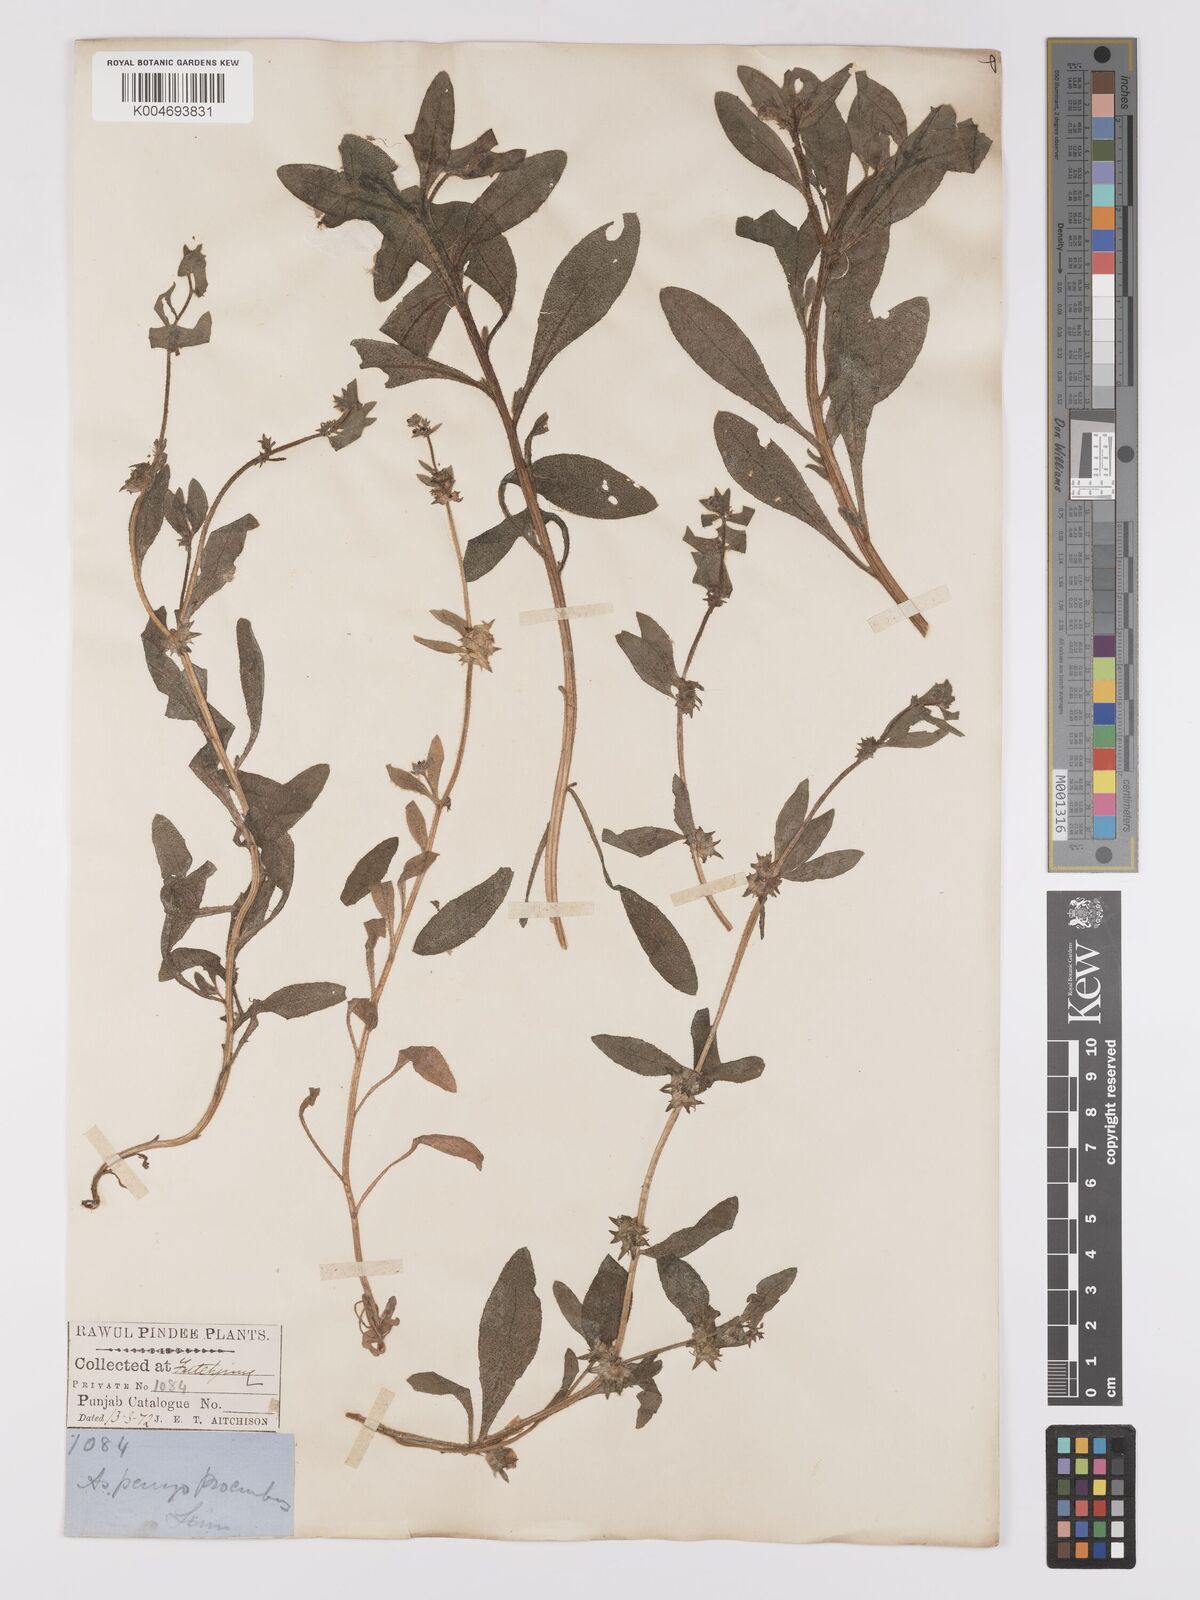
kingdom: Plantae
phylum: Tracheophyta
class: Magnoliopsida
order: Boraginales
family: Boraginaceae
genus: Asperugo
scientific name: Asperugo procumbens
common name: Madwort
